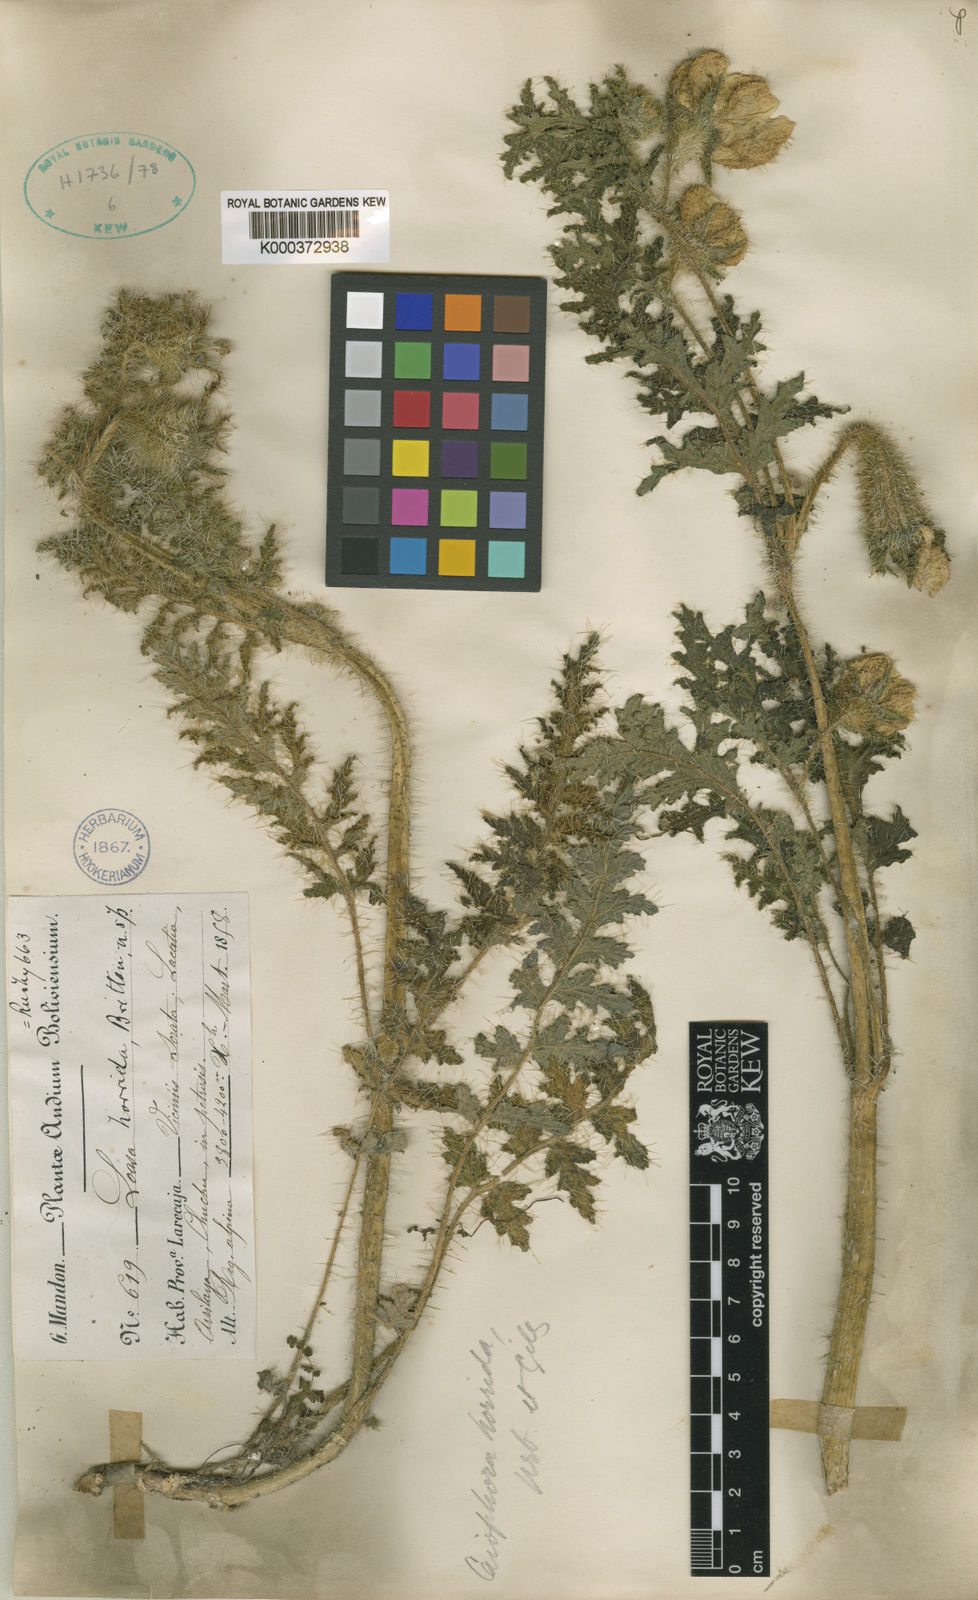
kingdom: Plantae
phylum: Tracheophyta
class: Magnoliopsida
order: Cornales
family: Loasaceae
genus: Caiophora
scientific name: Caiophora chuquitensis
